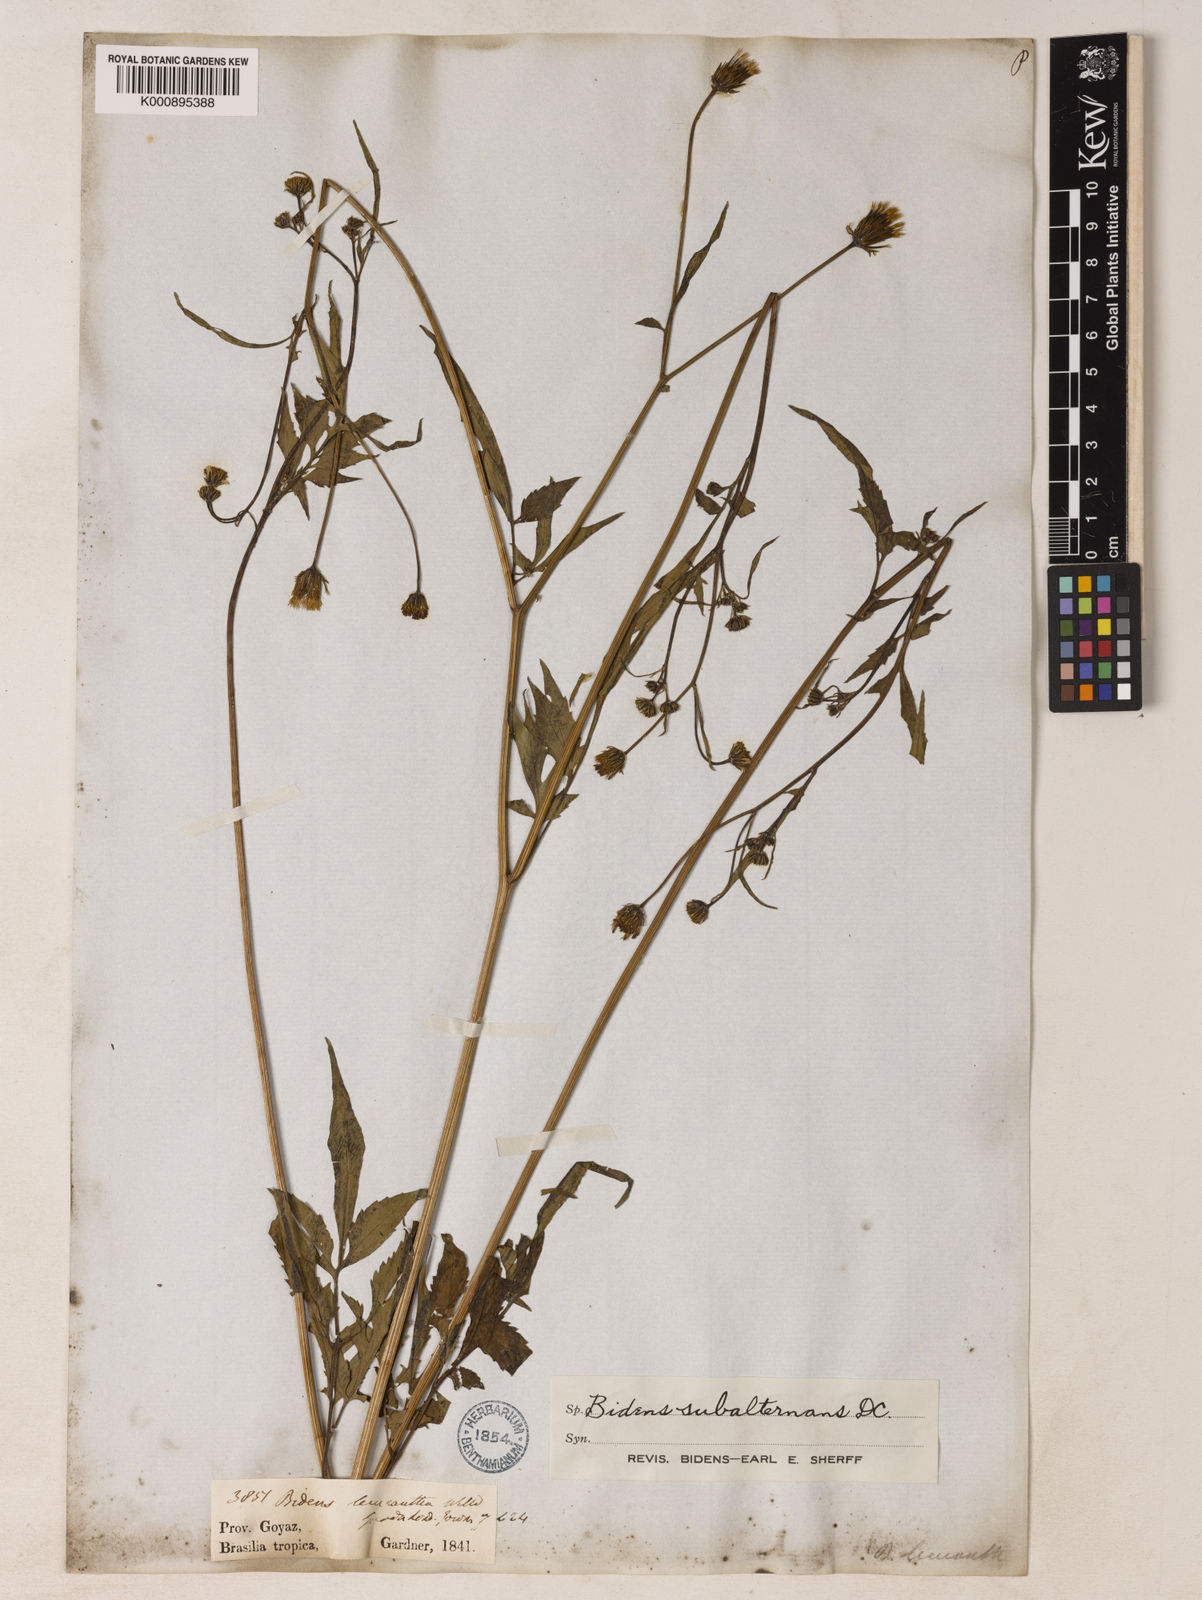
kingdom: Plantae
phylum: Tracheophyta
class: Magnoliopsida
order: Asterales
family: Asteraceae
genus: Bidens
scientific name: Bidens subalternans
